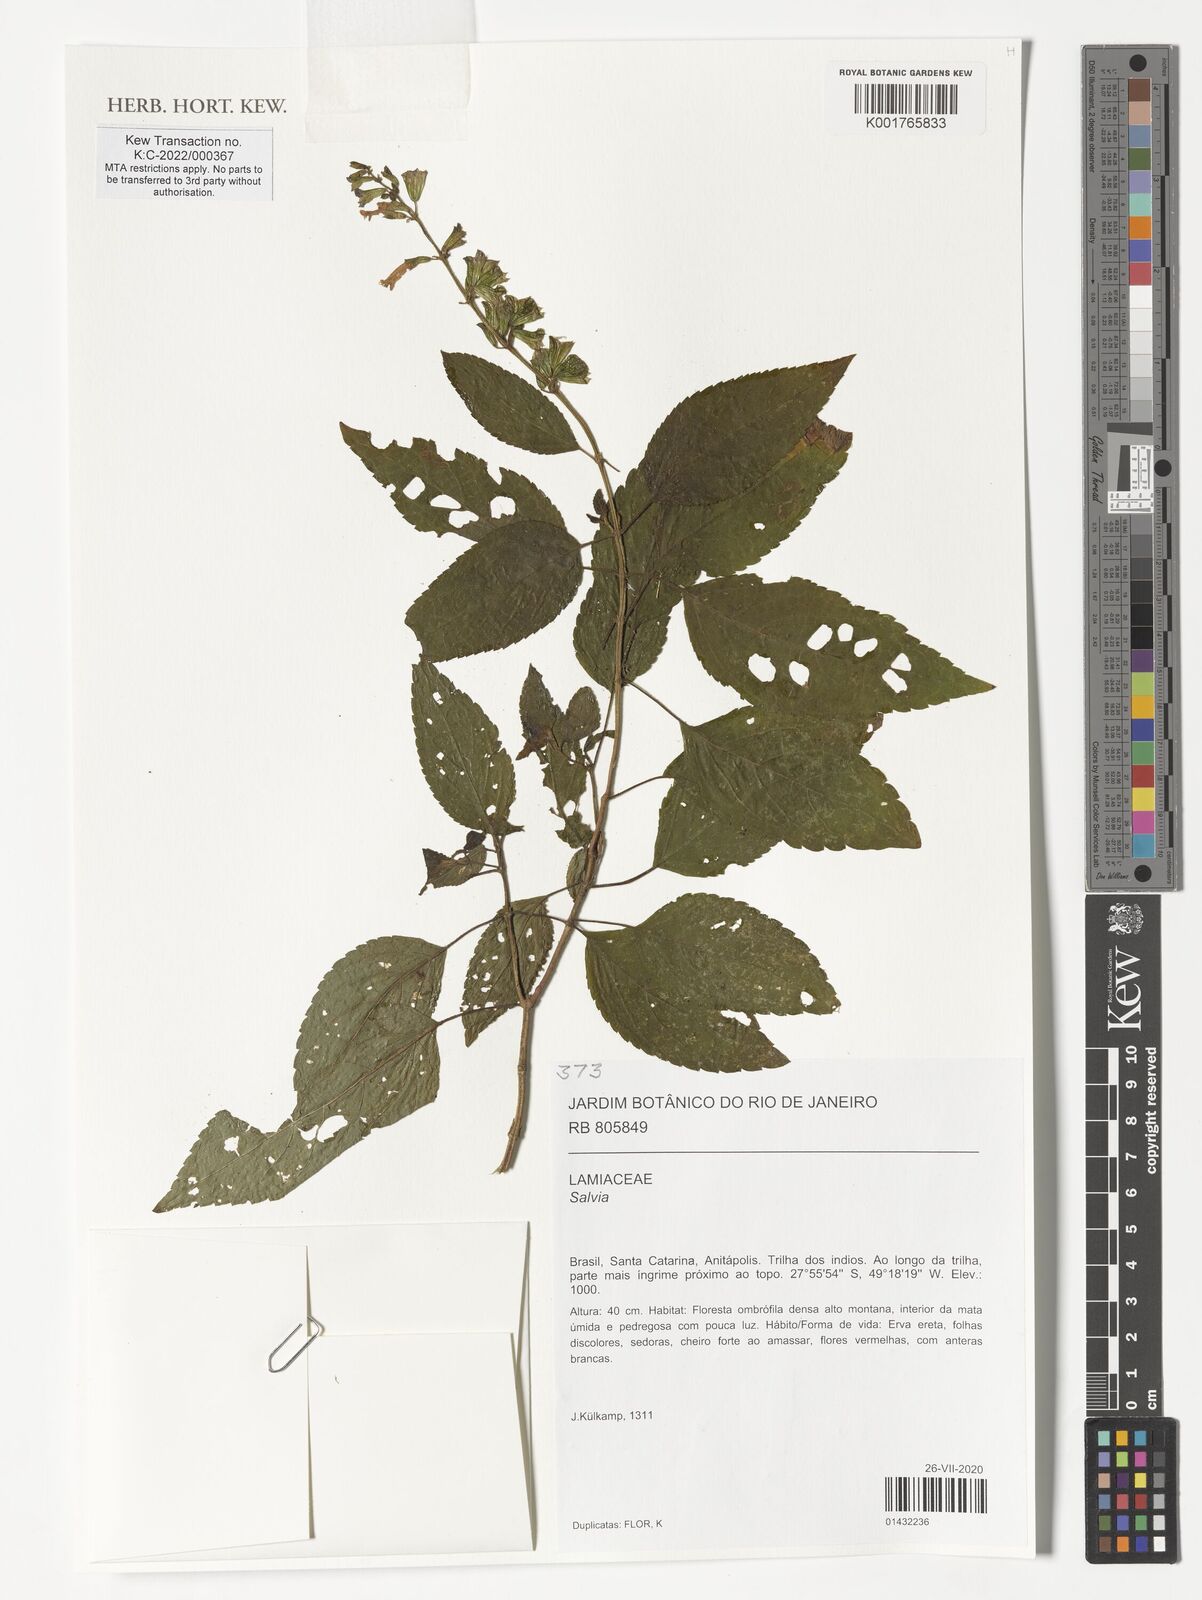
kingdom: Plantae
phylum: Tracheophyta
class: Magnoliopsida
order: Lamiales
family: Lamiaceae
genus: Salvia
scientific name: Salvia
